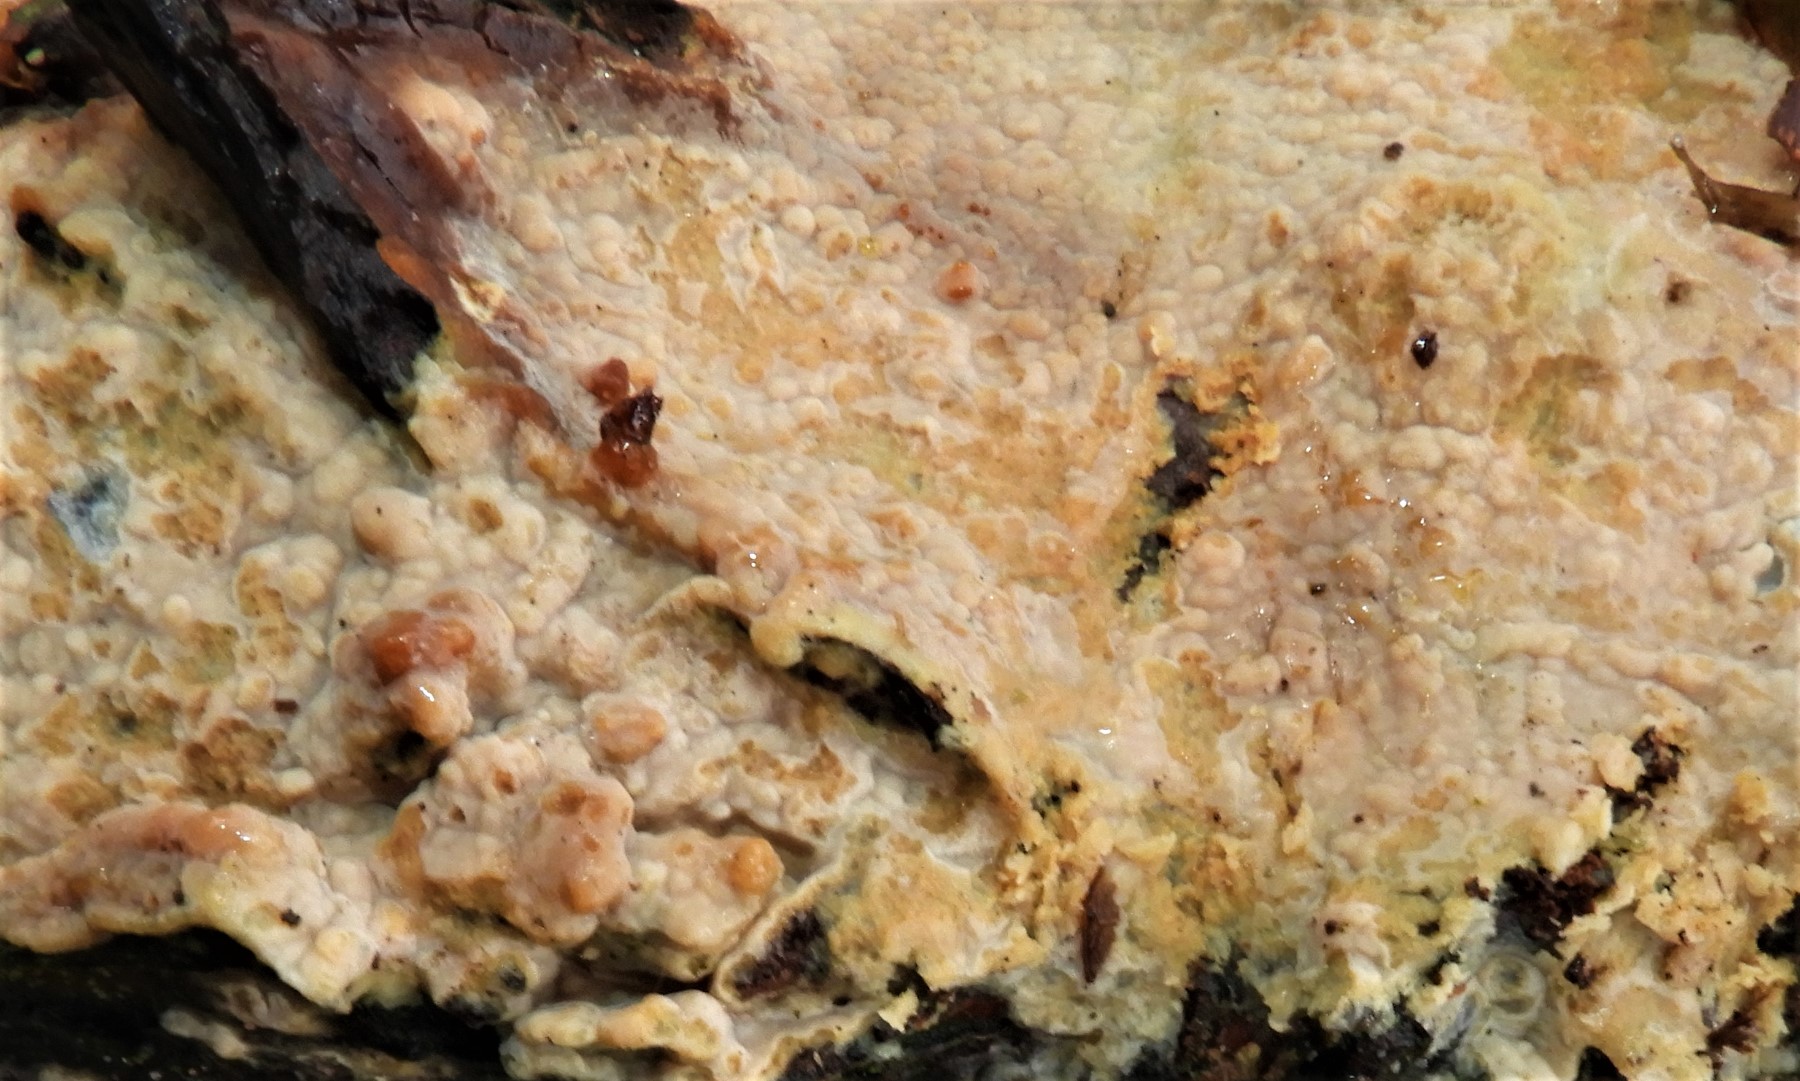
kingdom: Fungi
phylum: Basidiomycota
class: Agaricomycetes
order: Corticiales
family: Corticiaceae
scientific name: Corticiaceae
